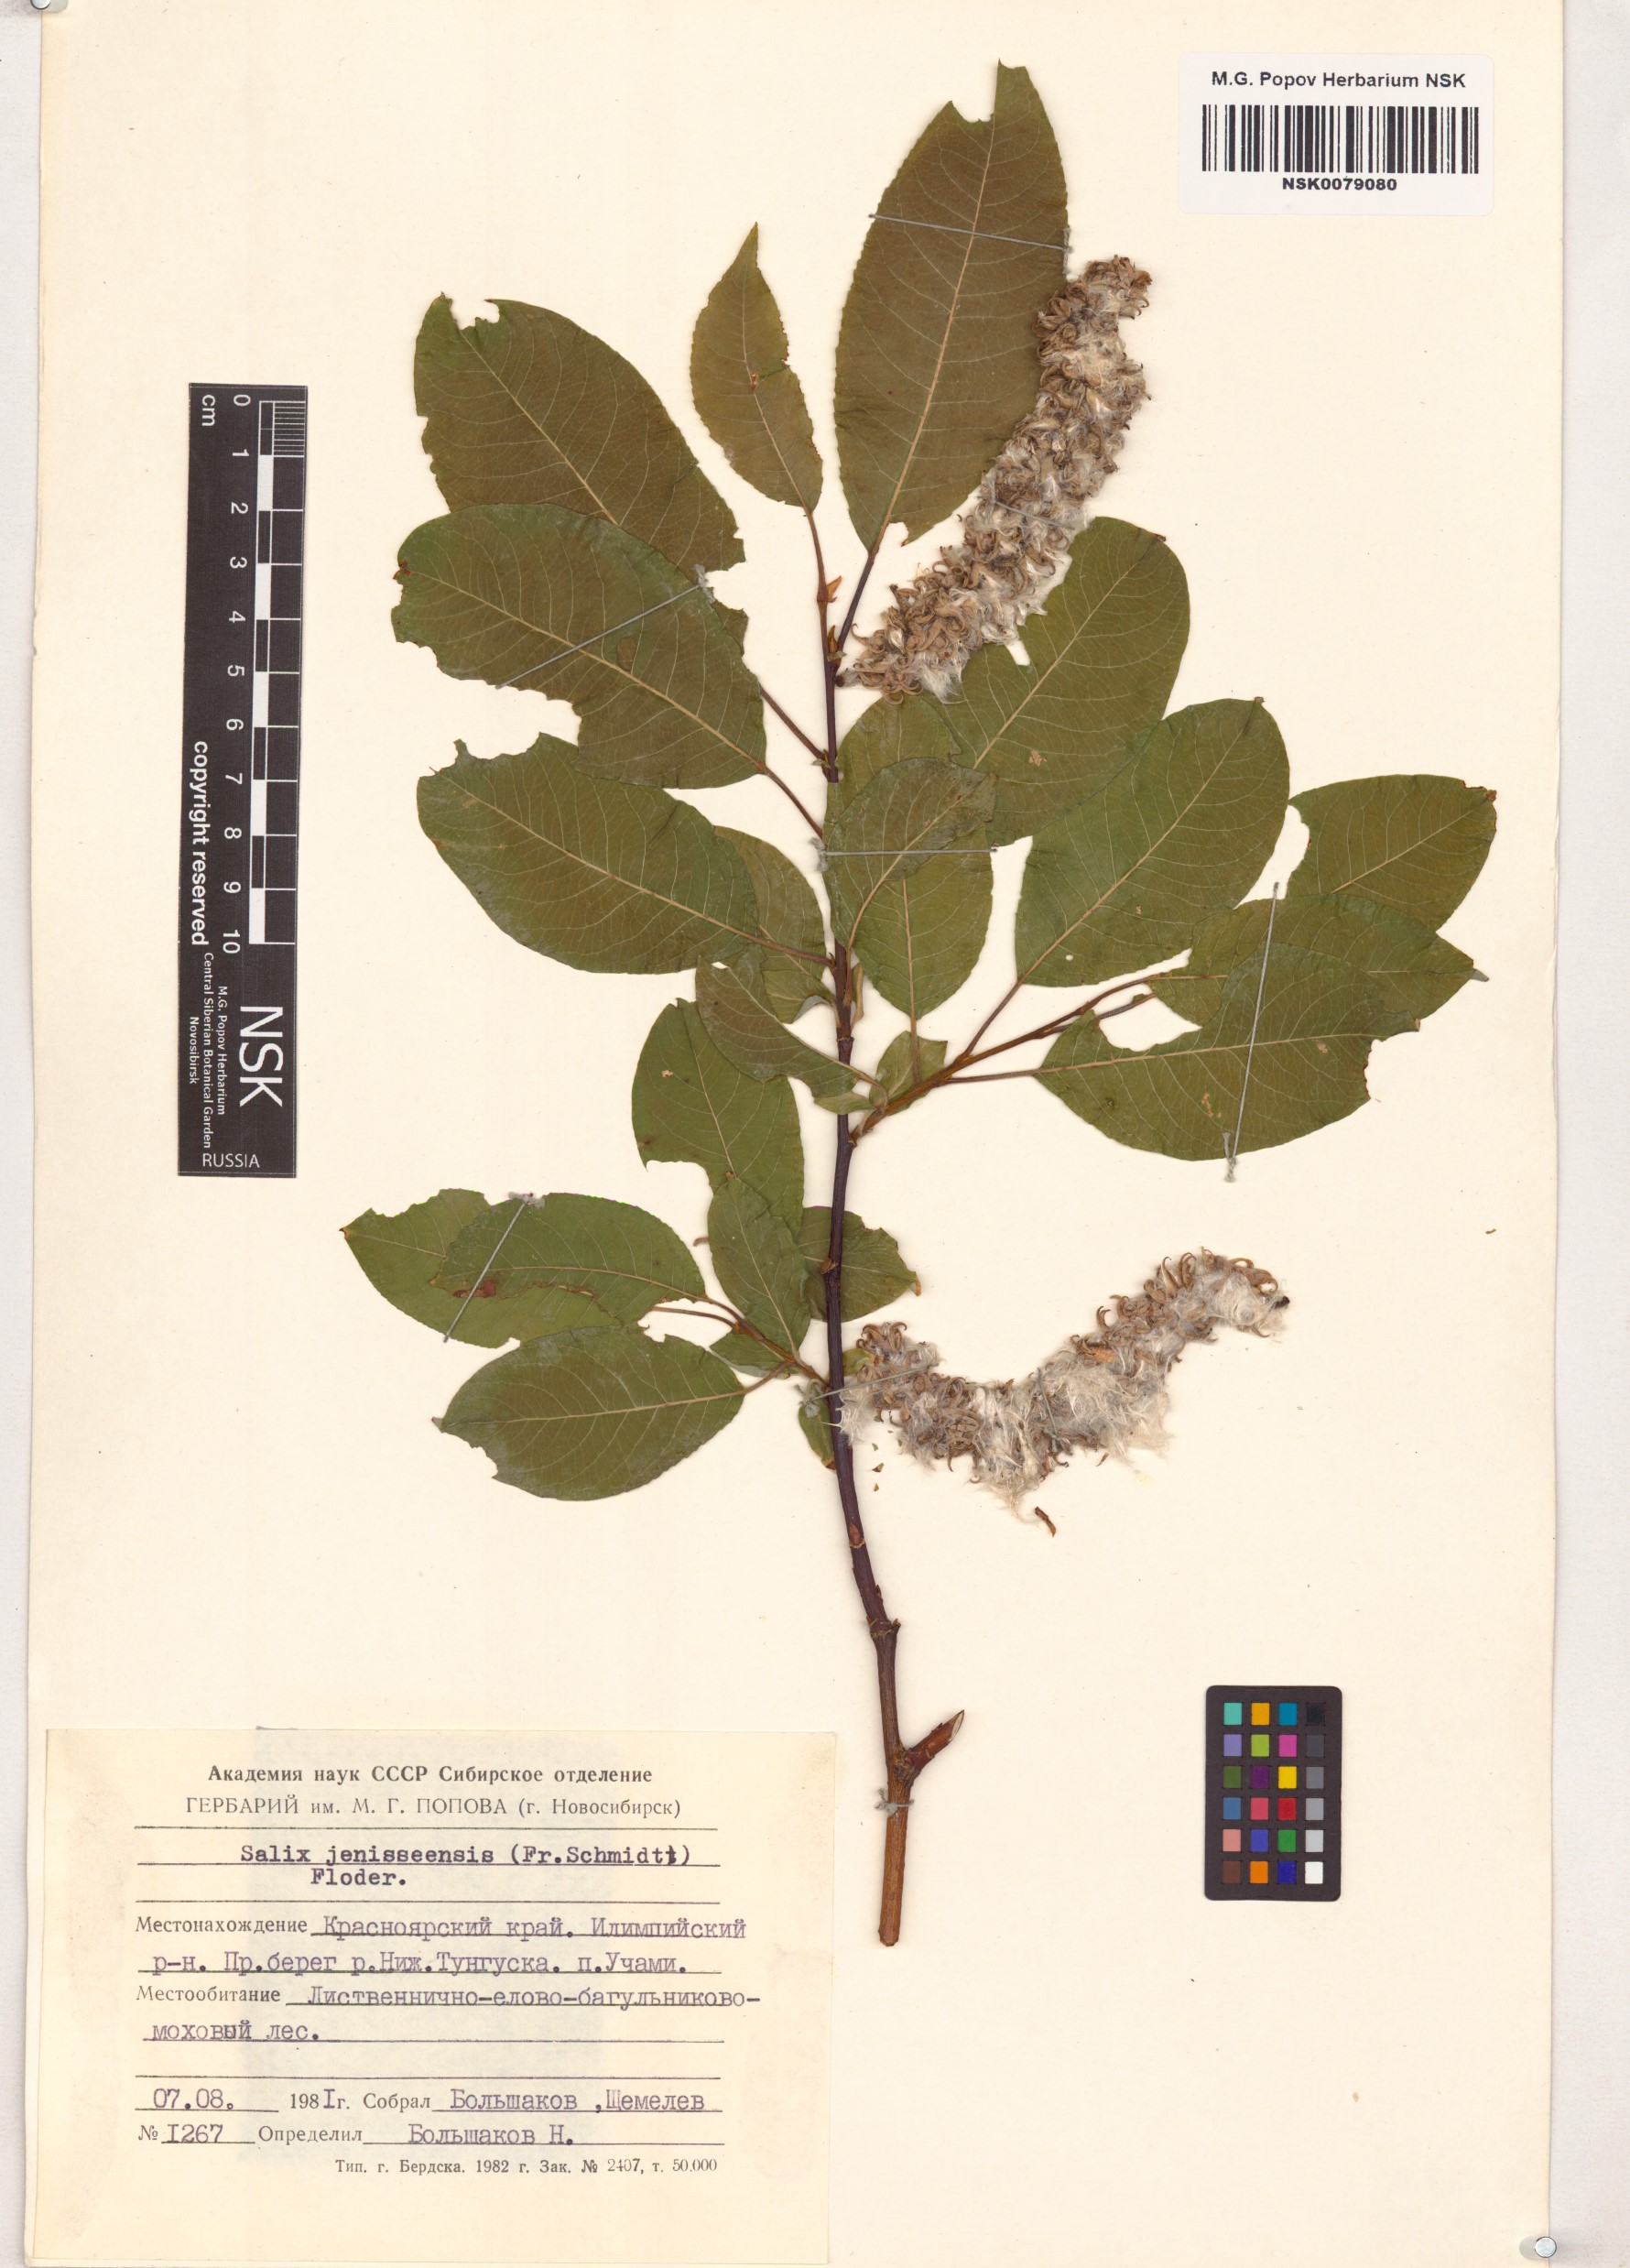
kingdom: Plantae
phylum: Tracheophyta
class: Magnoliopsida
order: Malpighiales
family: Salicaceae
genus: Salix
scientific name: Salix jenisseensis
